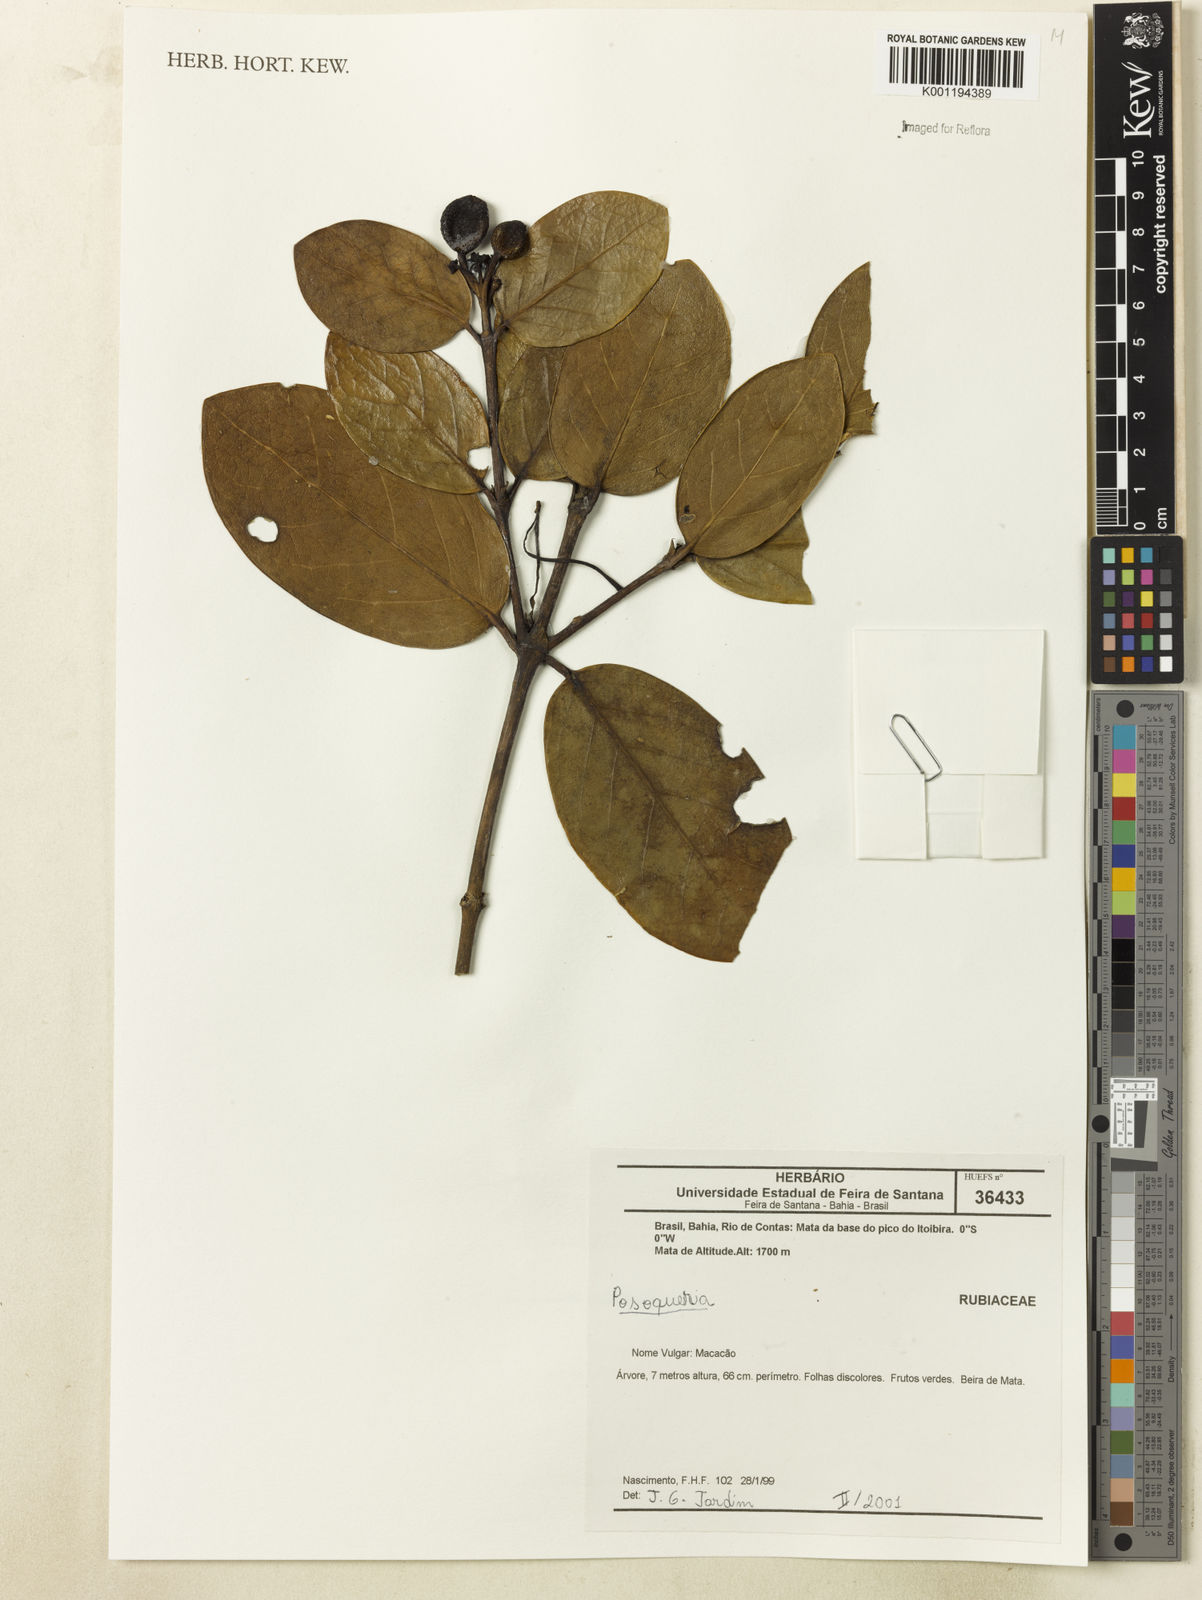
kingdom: Plantae
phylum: Tracheophyta
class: Magnoliopsida
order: Gentianales
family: Rubiaceae
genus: Posoqueria
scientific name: Posoqueria
